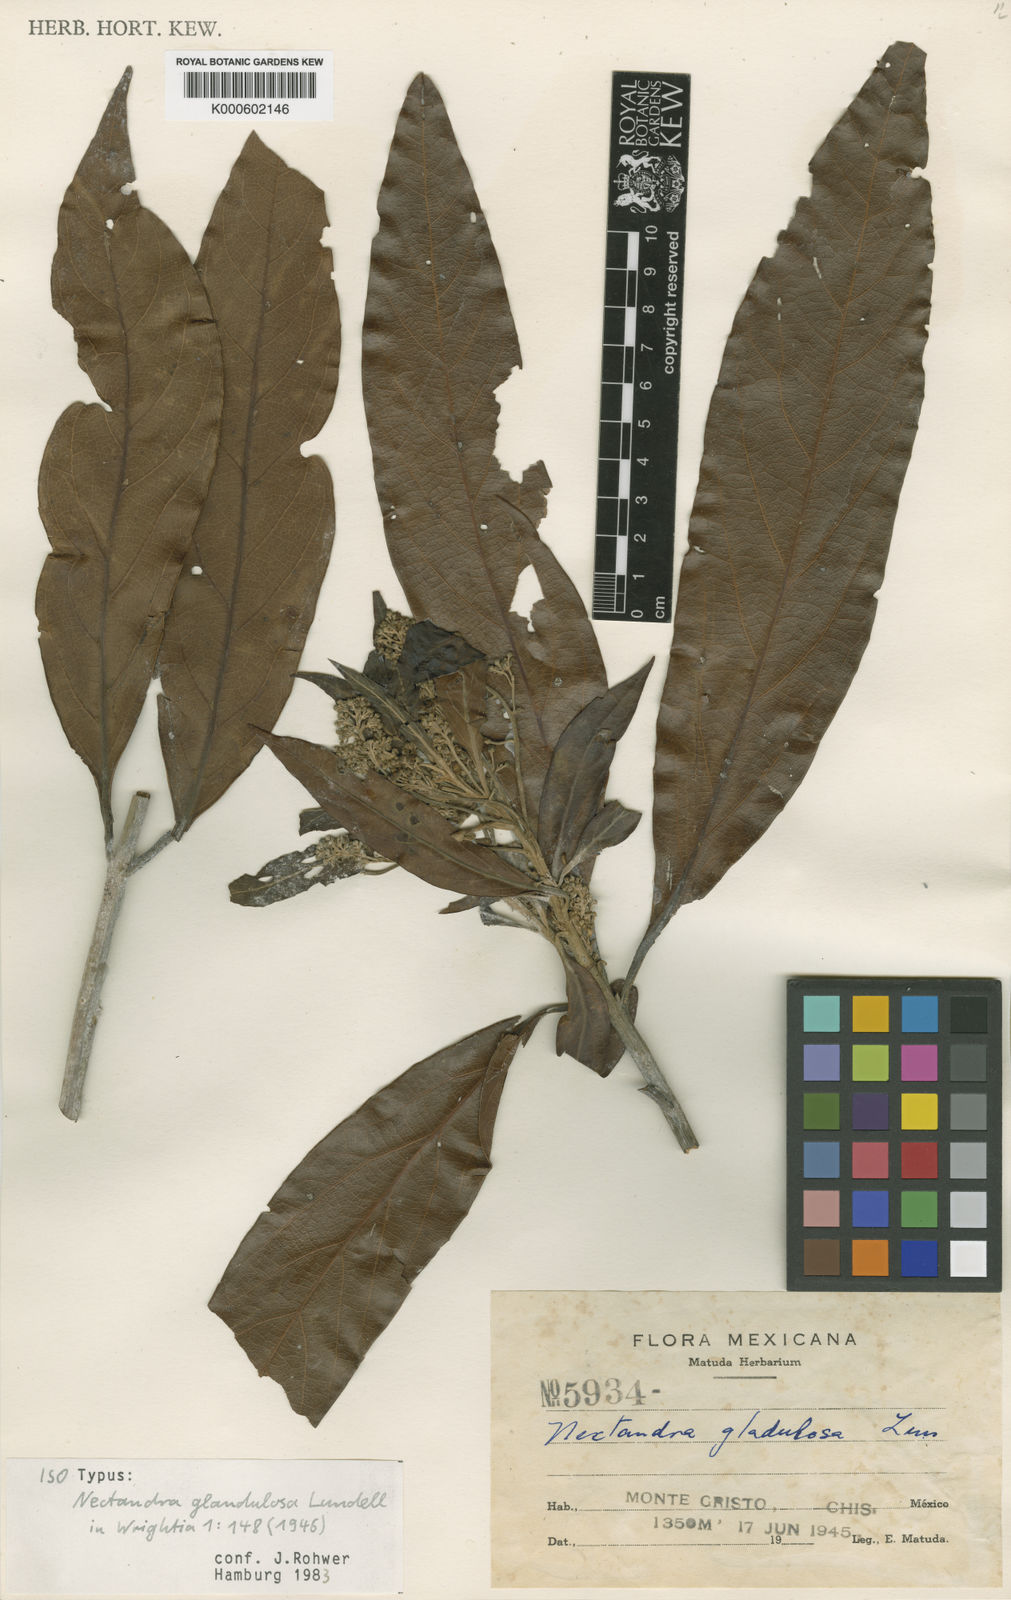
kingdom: Plantae
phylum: Tracheophyta
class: Magnoliopsida
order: Laurales
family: Lauraceae
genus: Ocotea
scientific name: Ocotea fendleri
